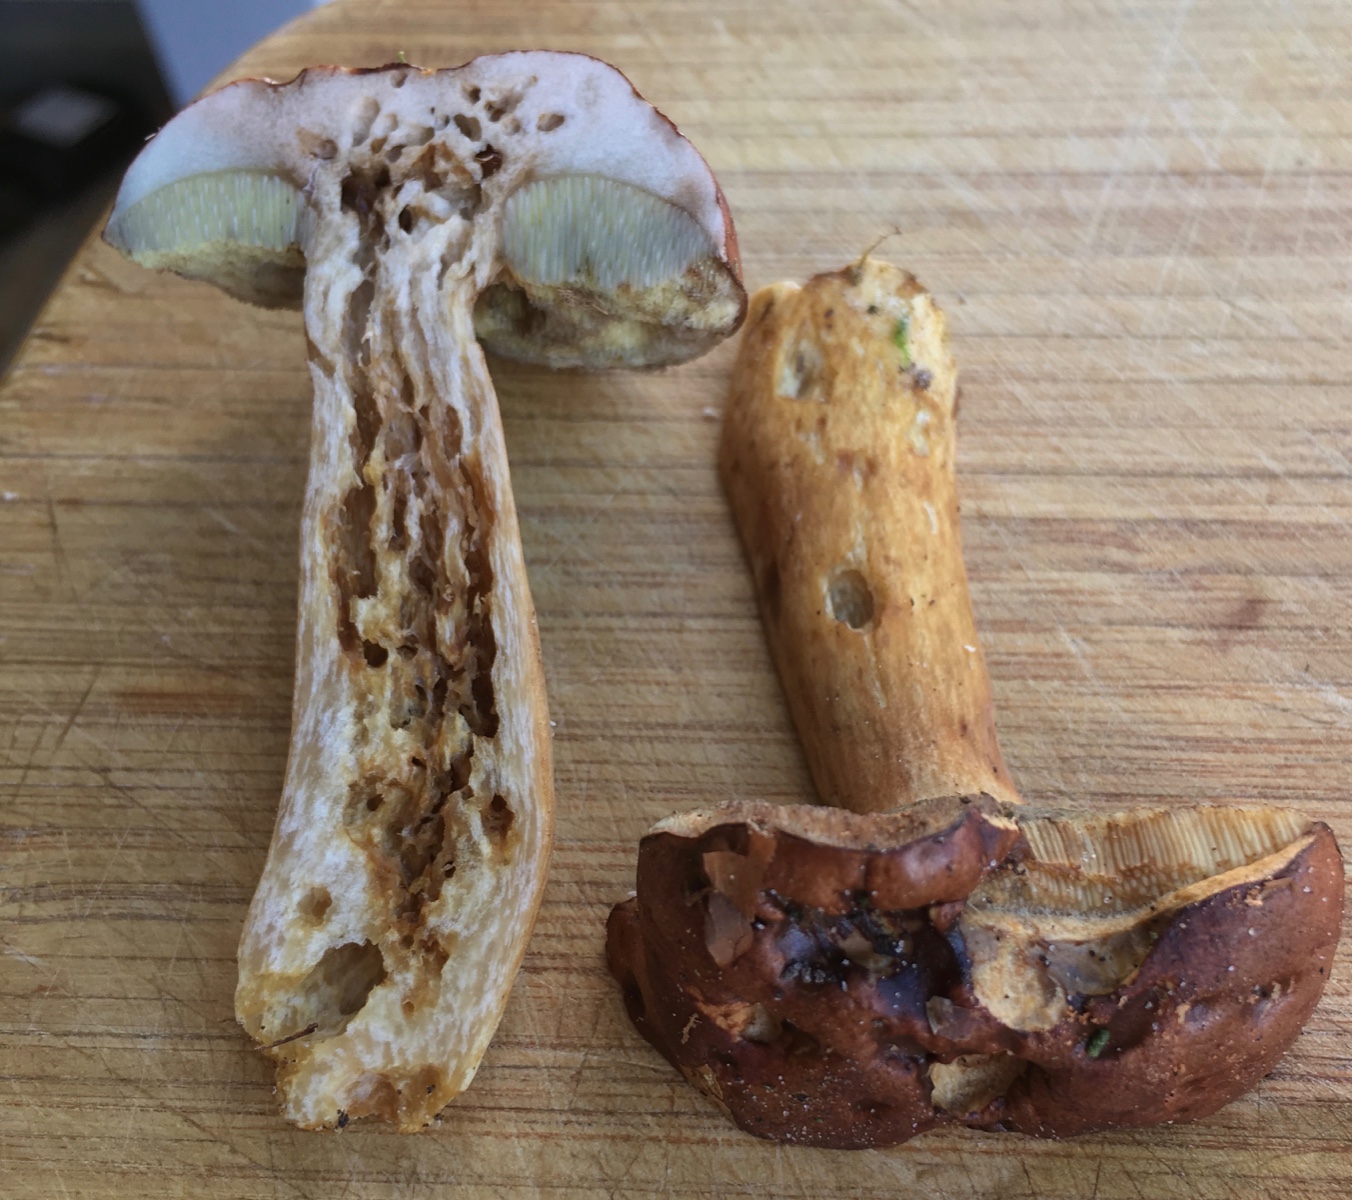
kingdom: Fungi
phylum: Basidiomycota
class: Agaricomycetes
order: Boletales
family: Boletaceae
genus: Imleria
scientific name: Imleria badia
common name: brunstokket rørhat
